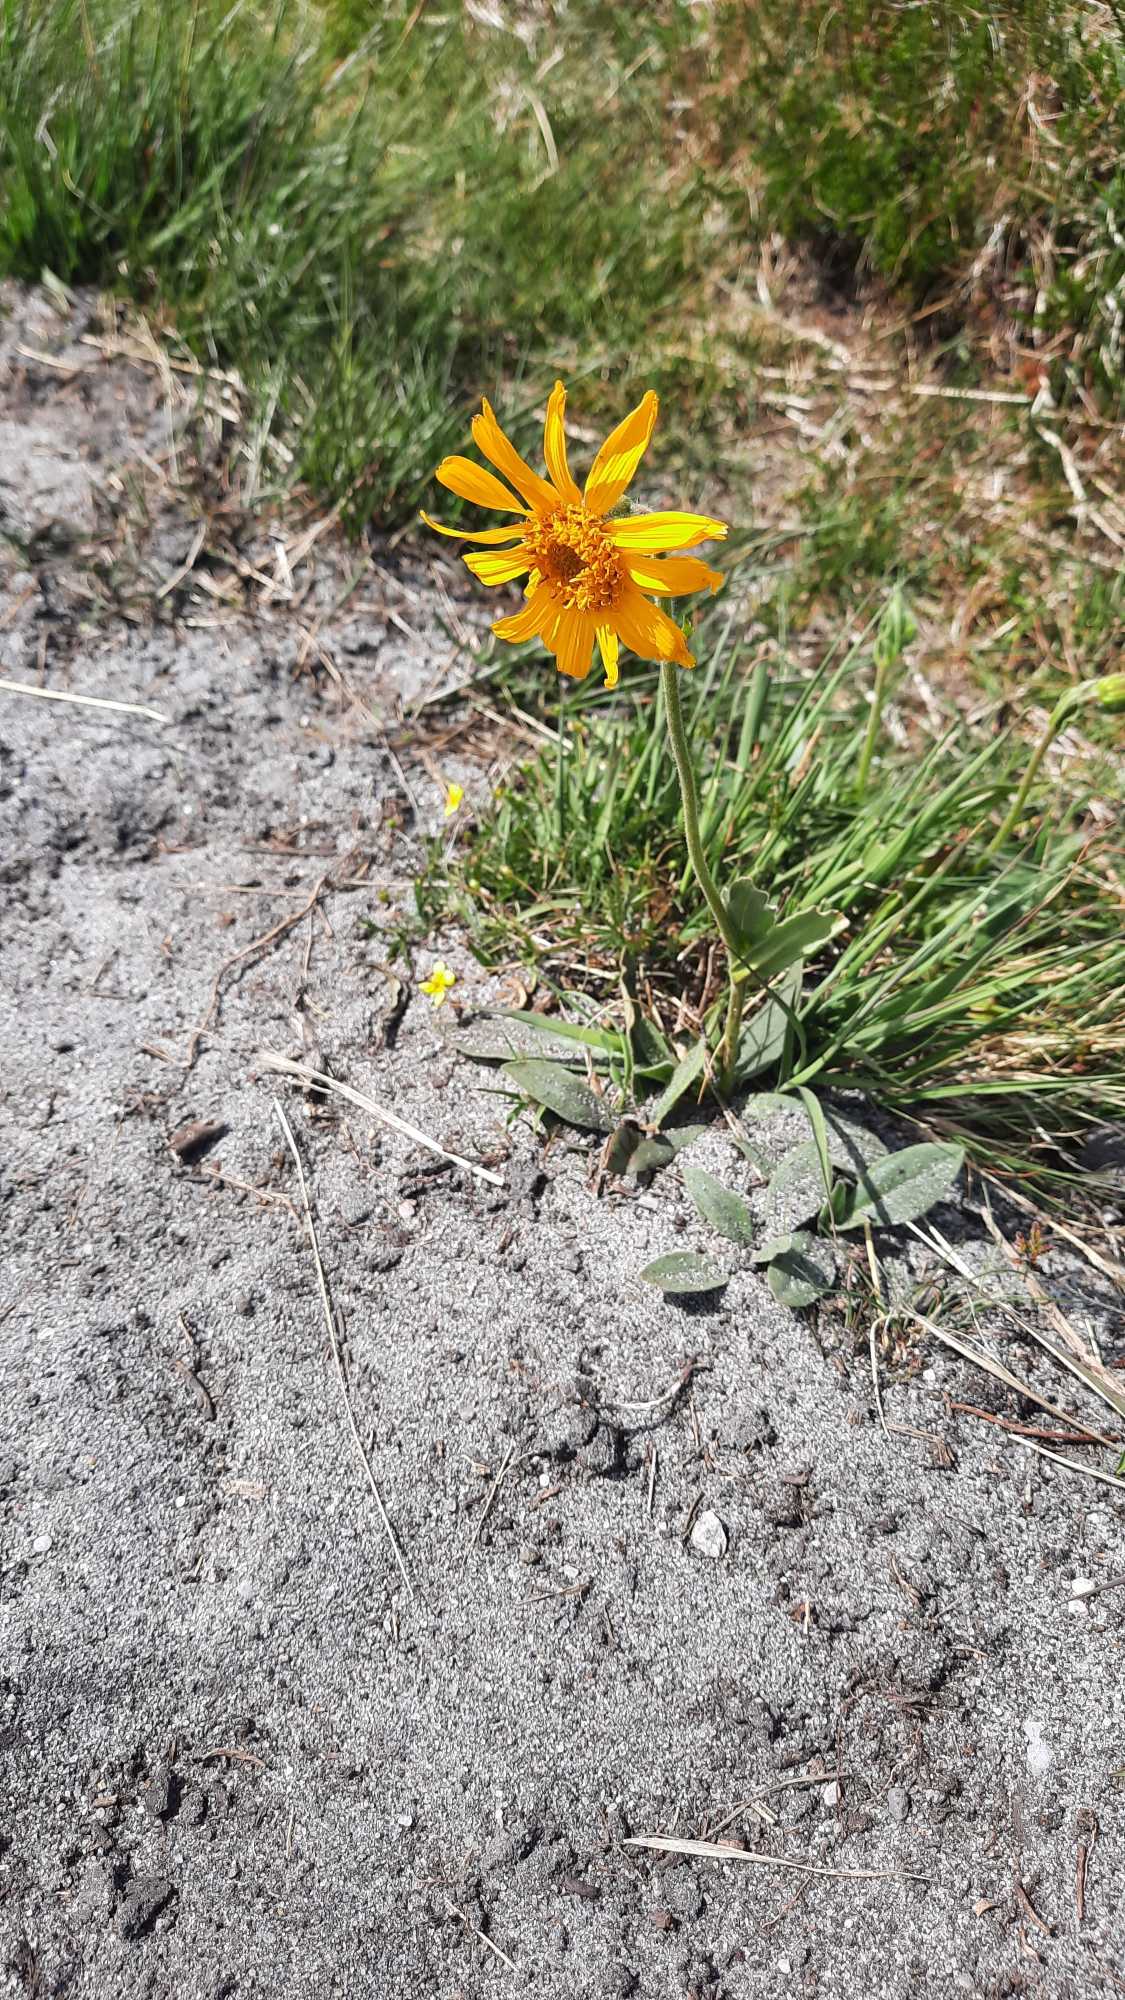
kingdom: Plantae
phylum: Tracheophyta
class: Magnoliopsida
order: Asterales
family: Asteraceae
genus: Arnica
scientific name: Arnica montana
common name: Guldblomme
